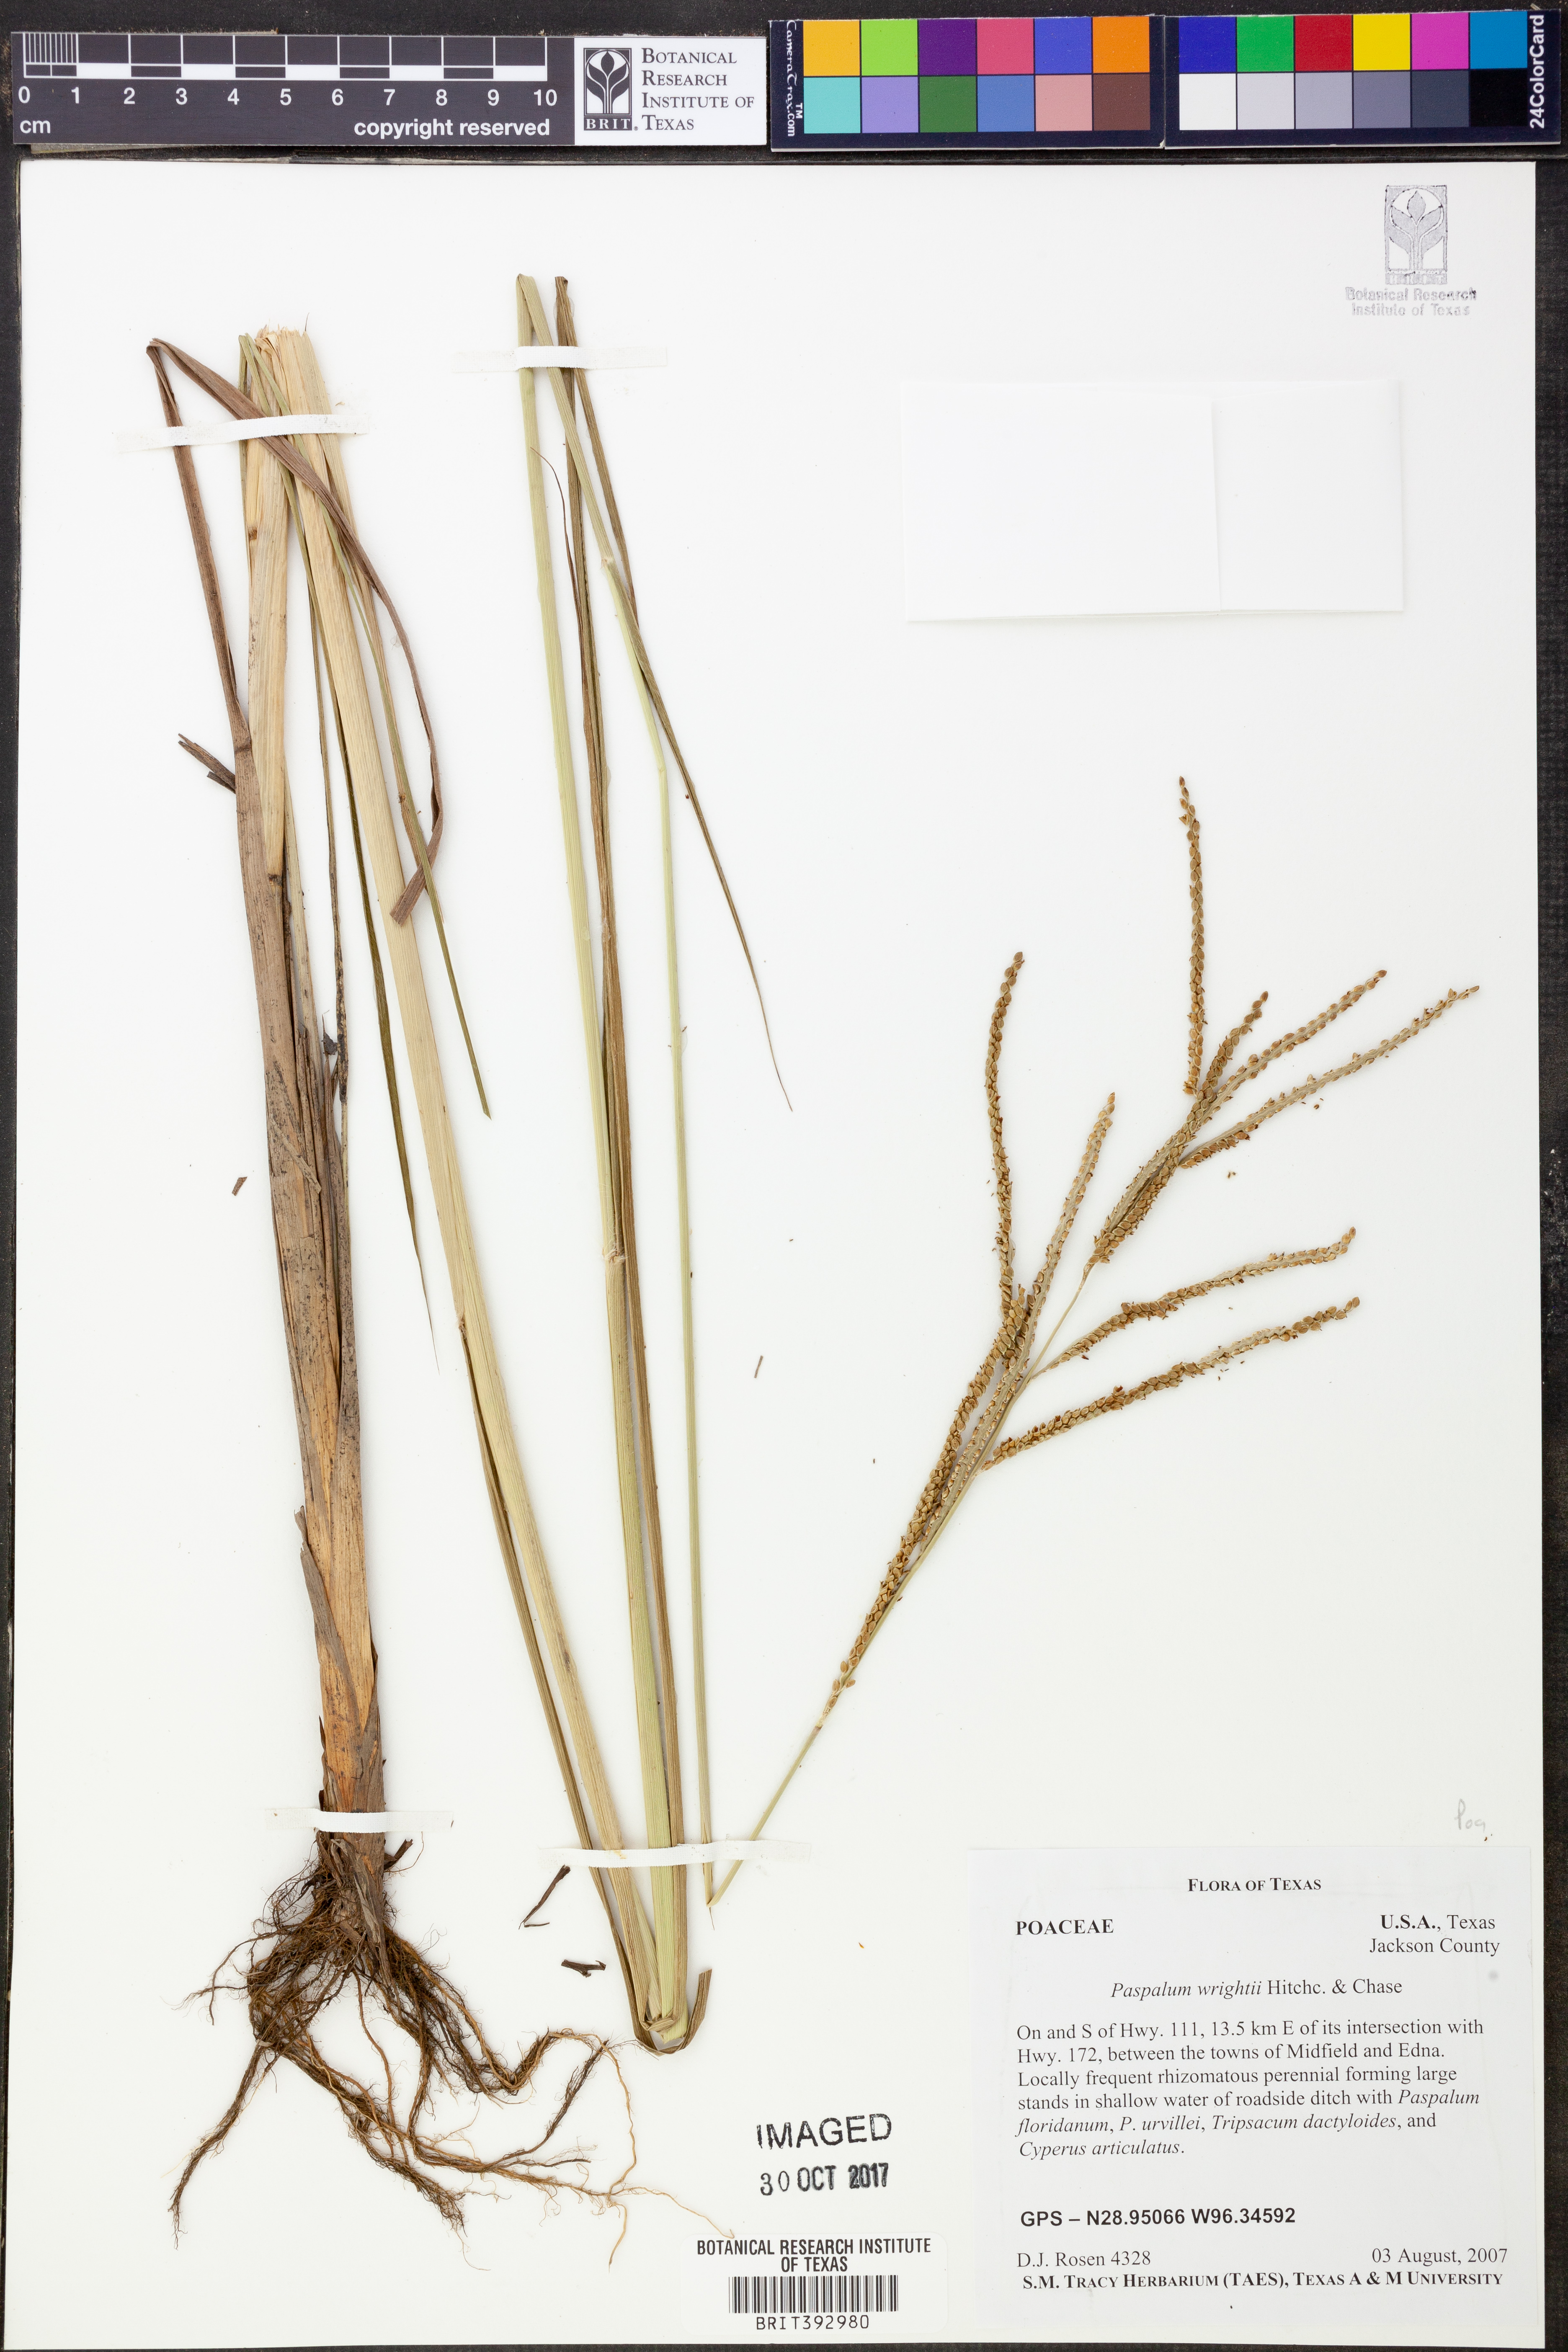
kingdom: Plantae
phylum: Tracheophyta
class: Liliopsida
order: Poales
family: Poaceae
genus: Paspalum
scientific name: Paspalum wrightii
